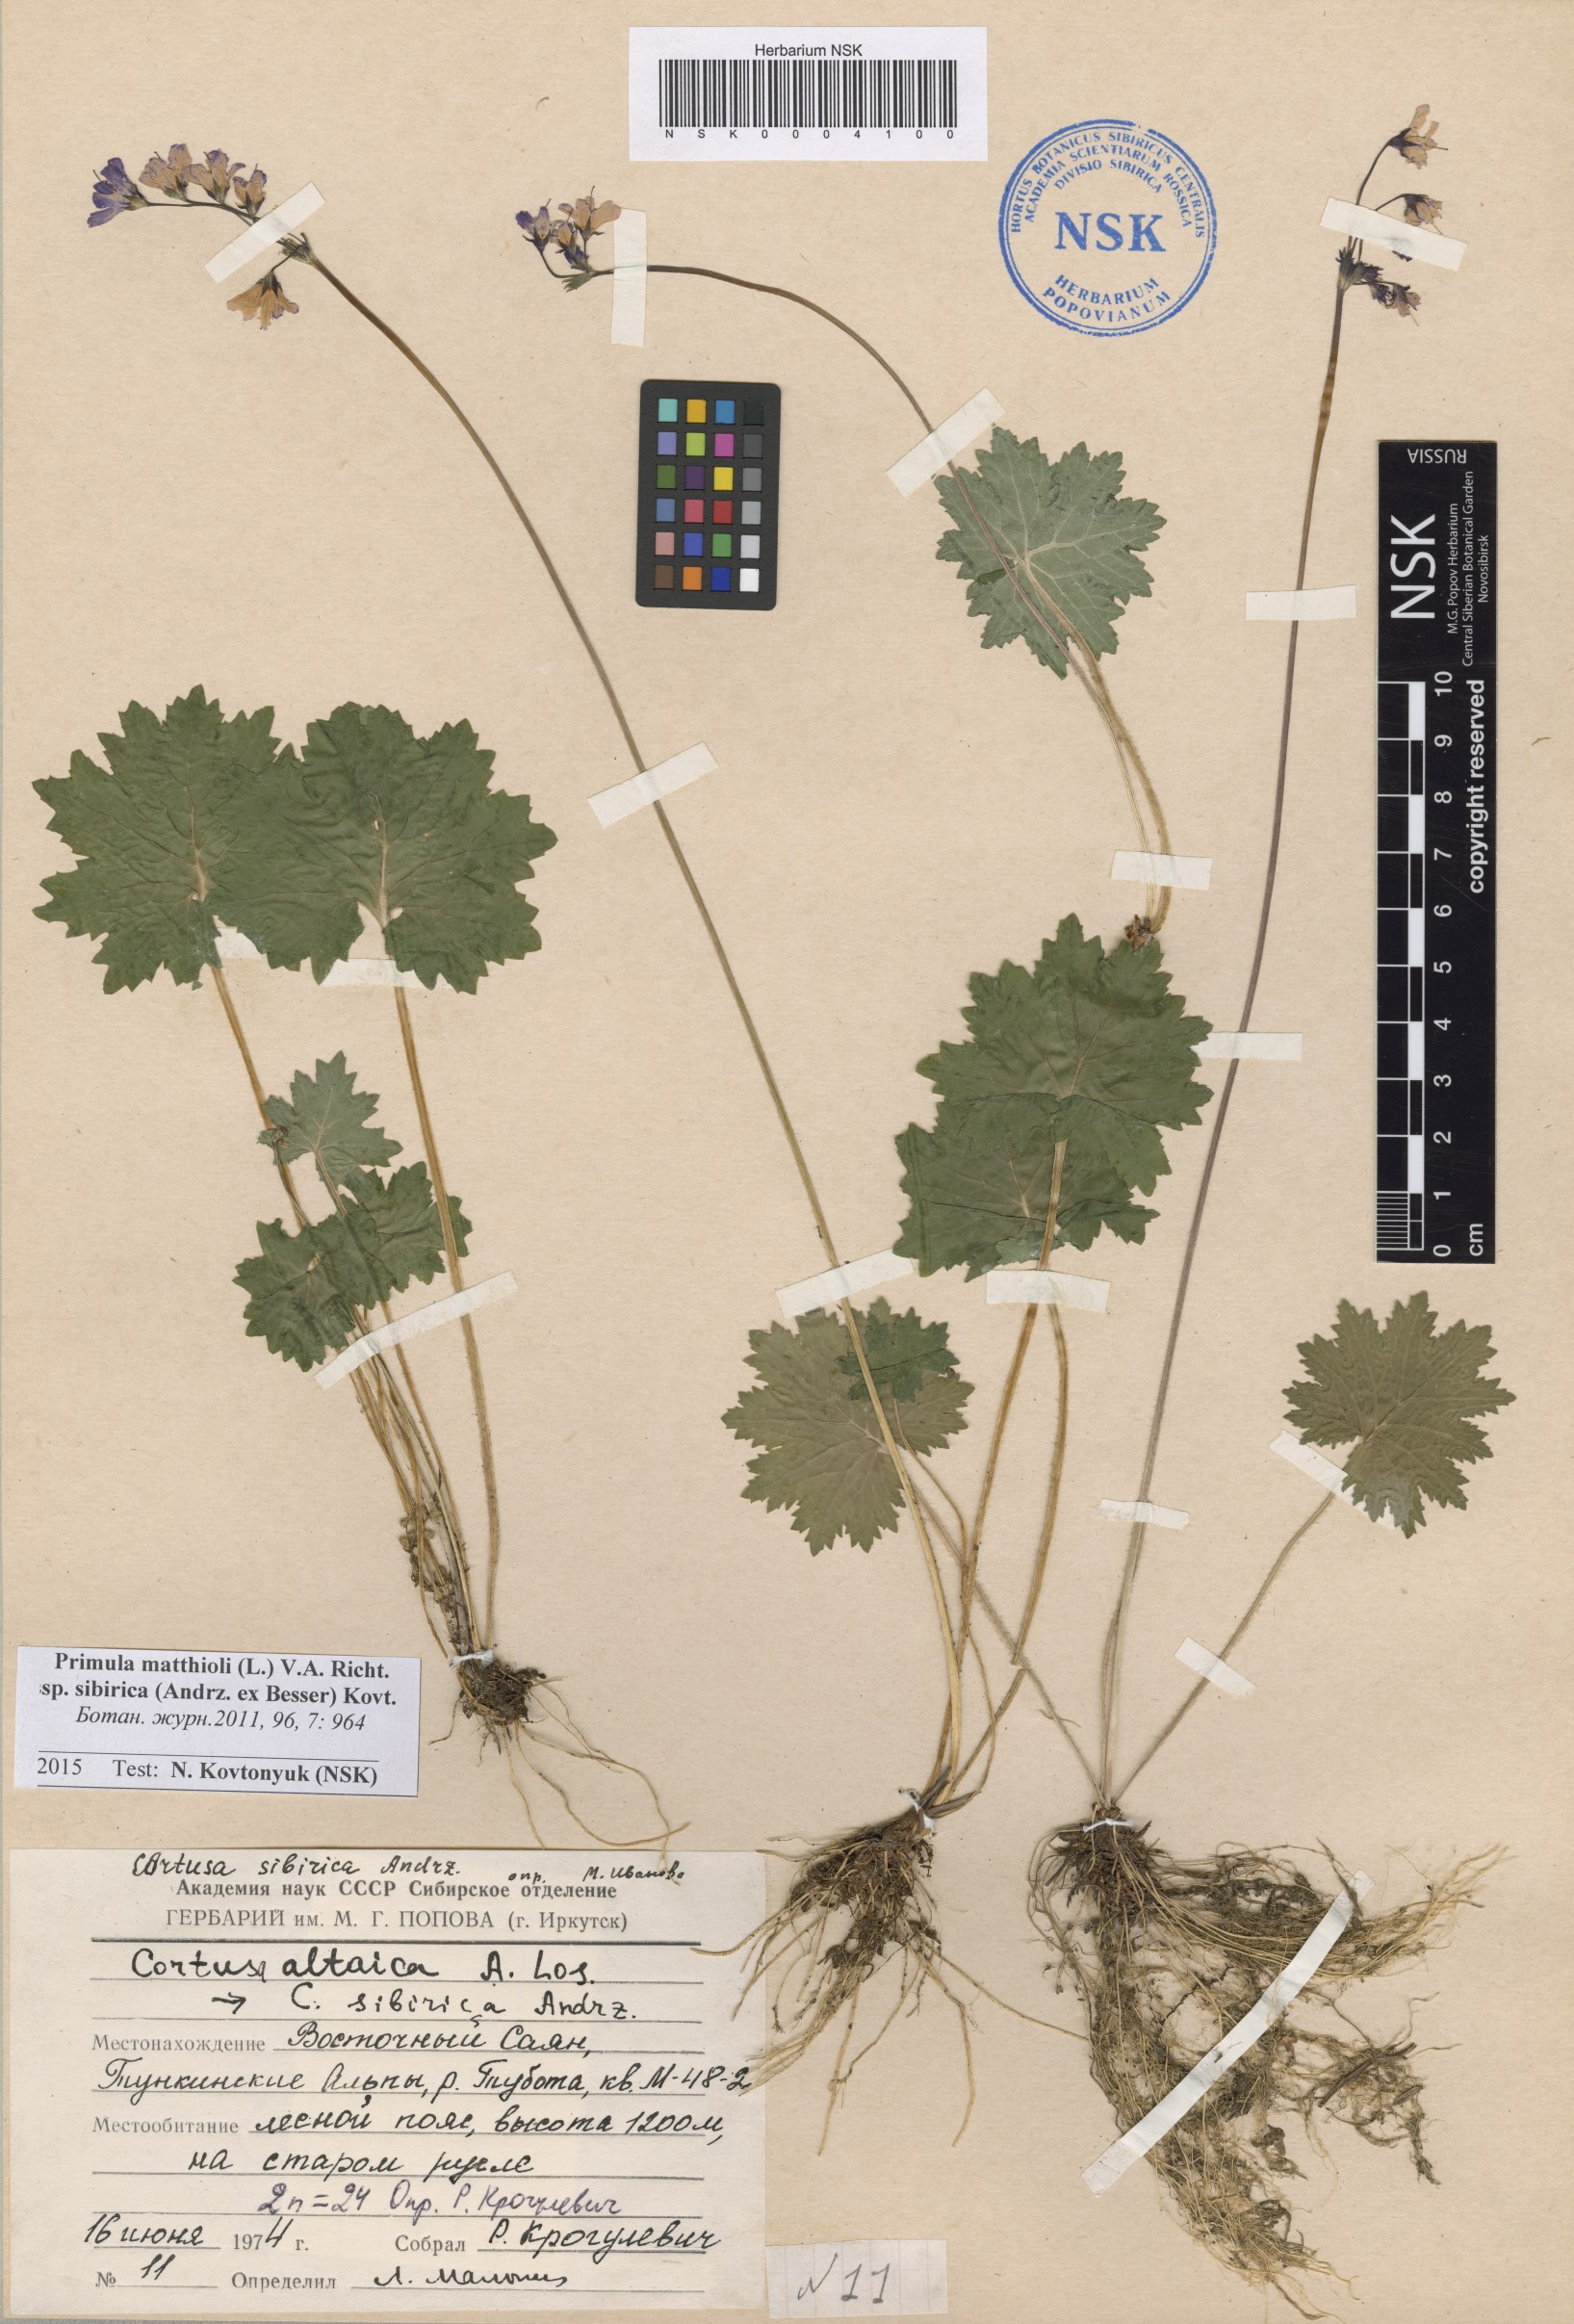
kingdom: Plantae
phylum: Tracheophyta
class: Magnoliopsida
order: Ericales
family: Primulaceae
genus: Primula
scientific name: Primula matthioli
